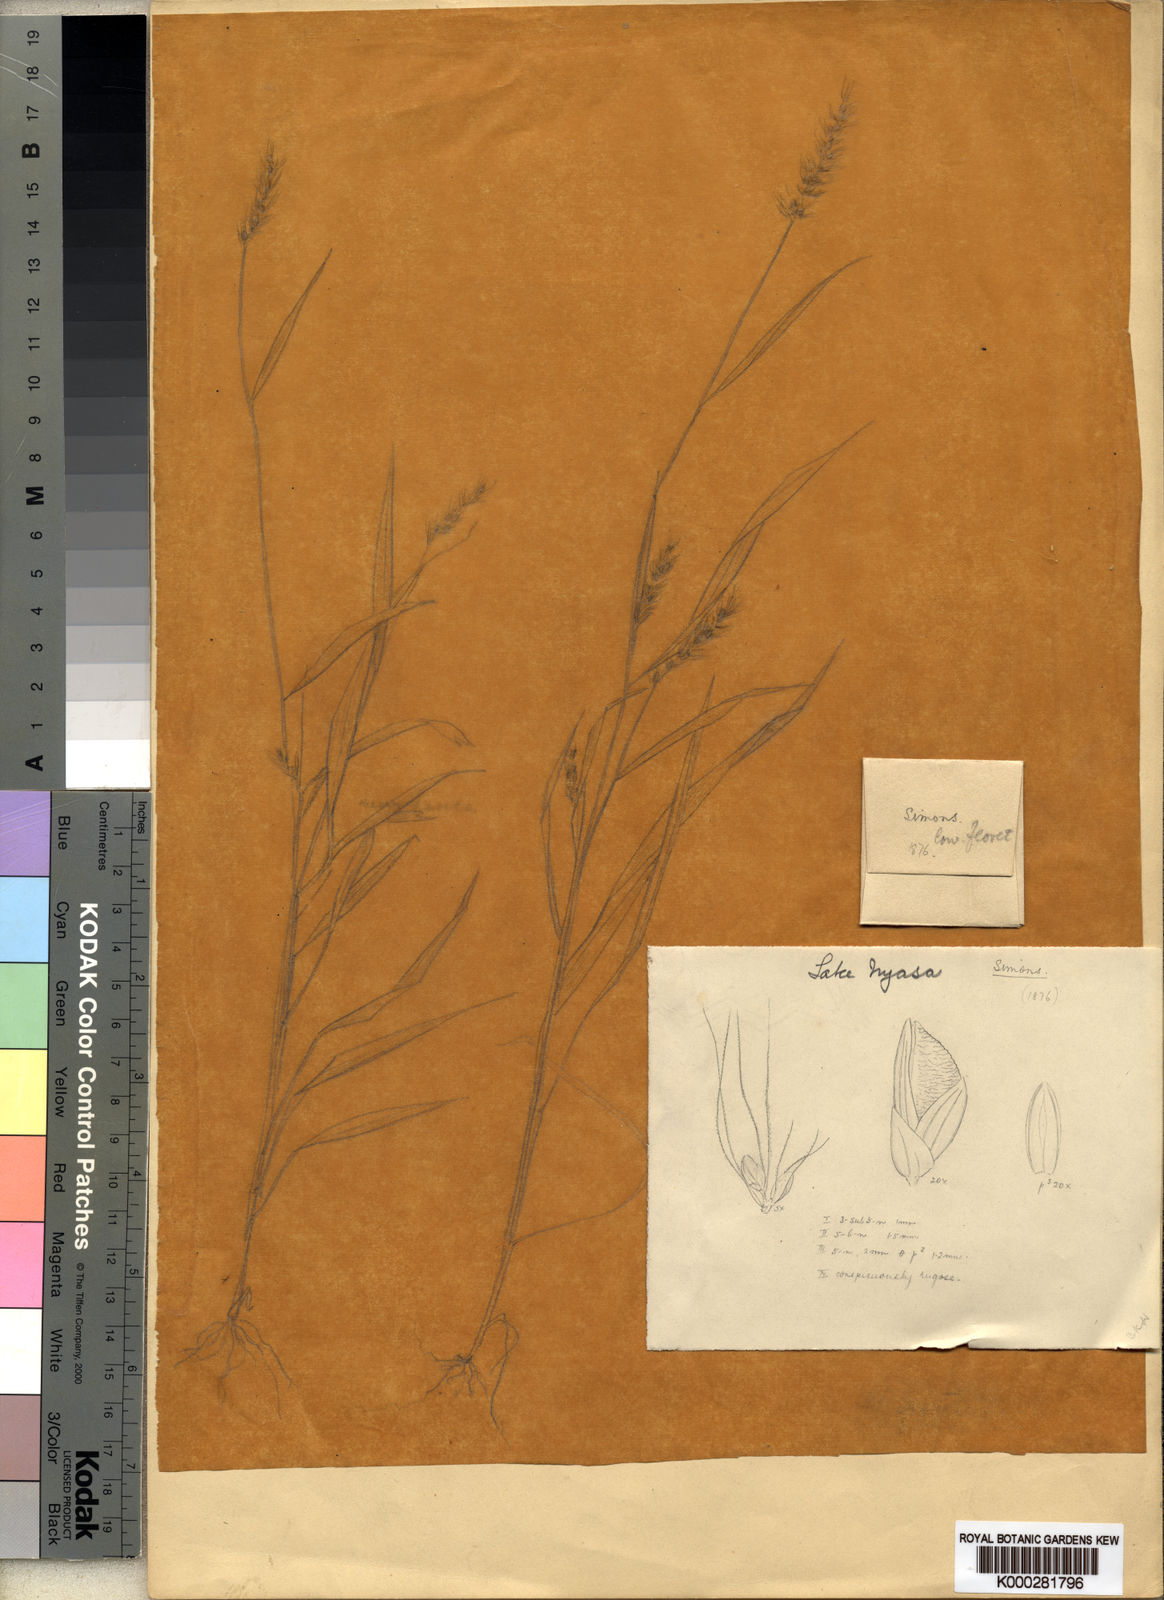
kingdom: Plantae
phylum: Tracheophyta
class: Liliopsida
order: Poales
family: Poaceae
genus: Setaria
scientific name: Setaria petiolata
